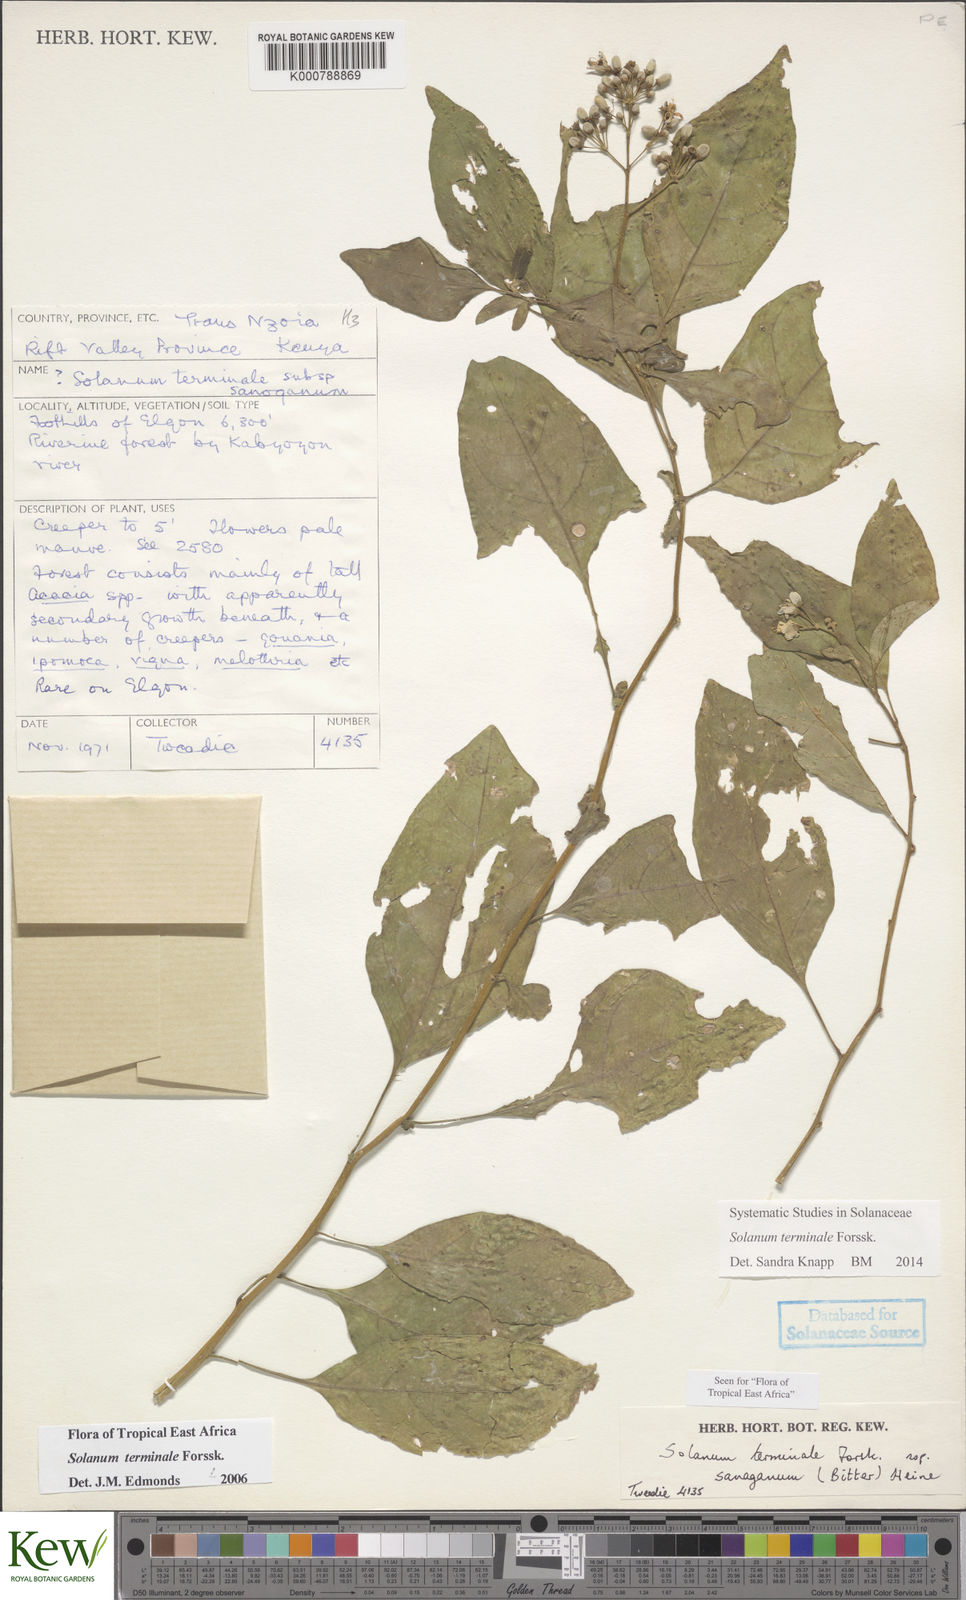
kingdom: Plantae
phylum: Tracheophyta
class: Magnoliopsida
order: Solanales
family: Solanaceae
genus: Solanum
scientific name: Solanum terminale
